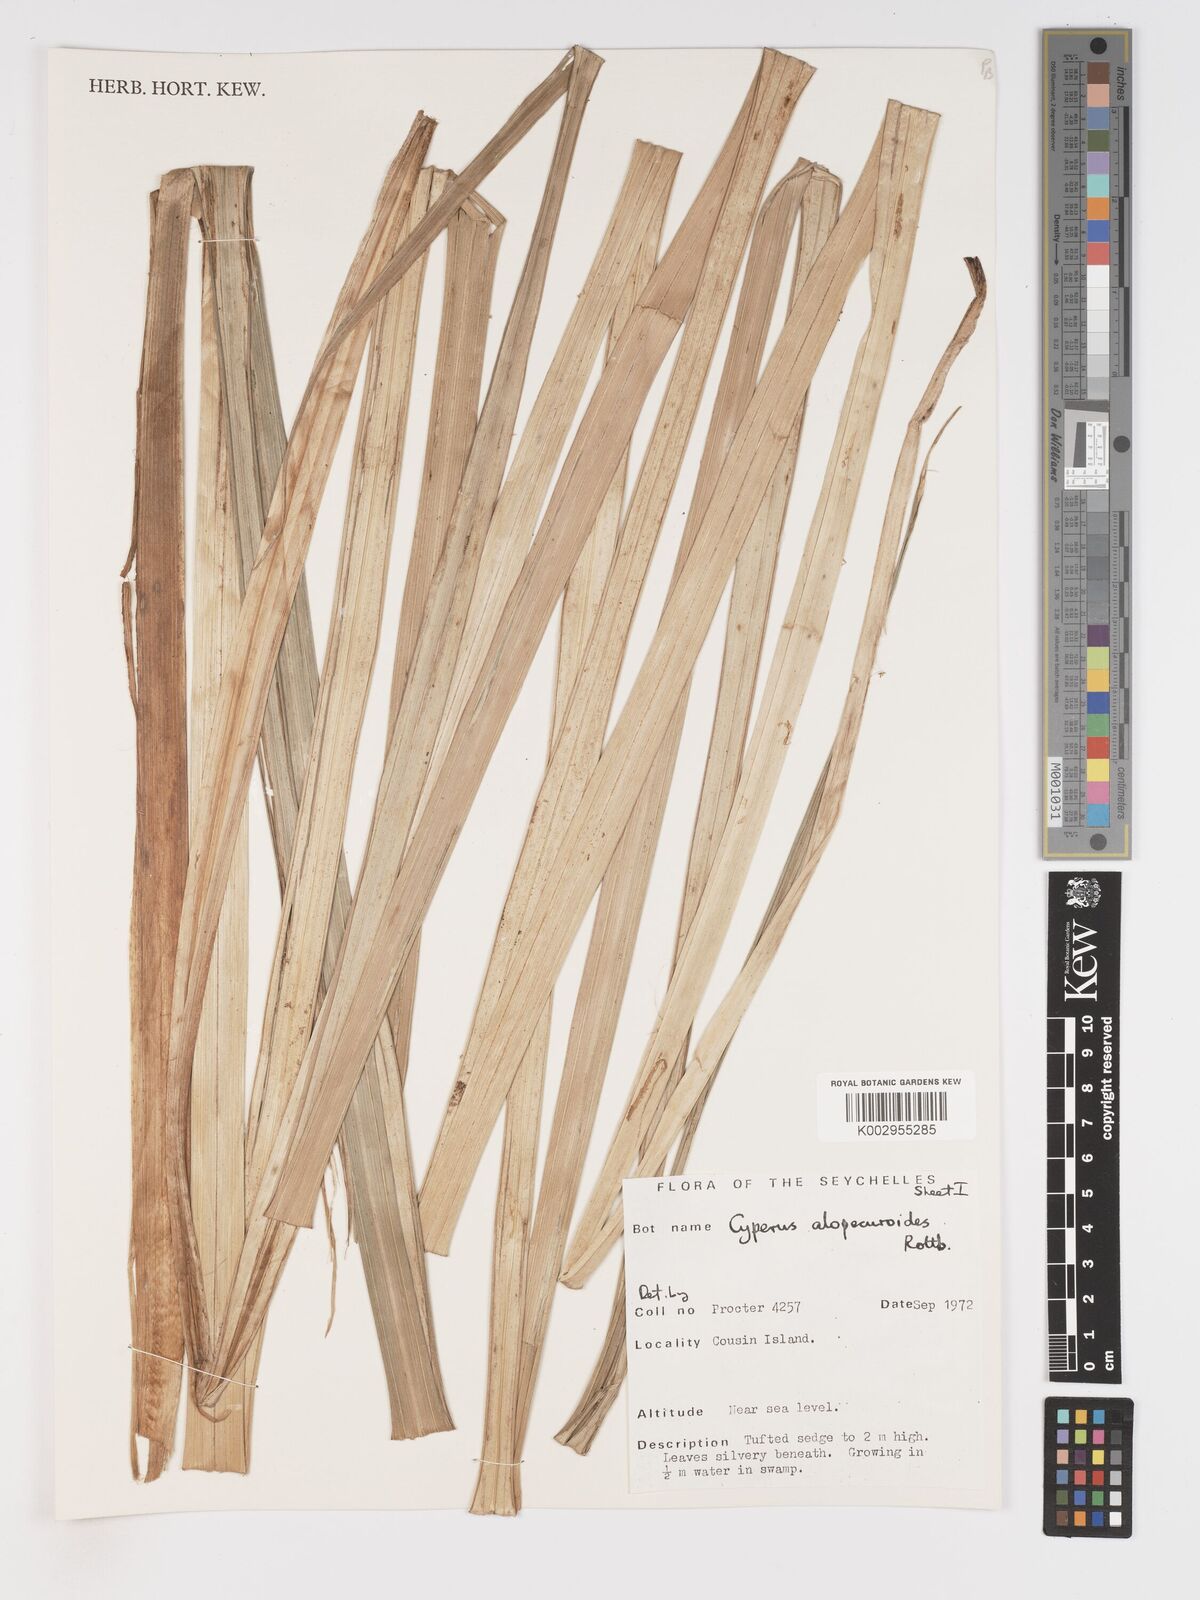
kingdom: Plantae
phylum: Tracheophyta
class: Liliopsida
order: Poales
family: Cyperaceae
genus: Cyperus
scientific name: Cyperus alopecuroides
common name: Foxtail flatsedge
